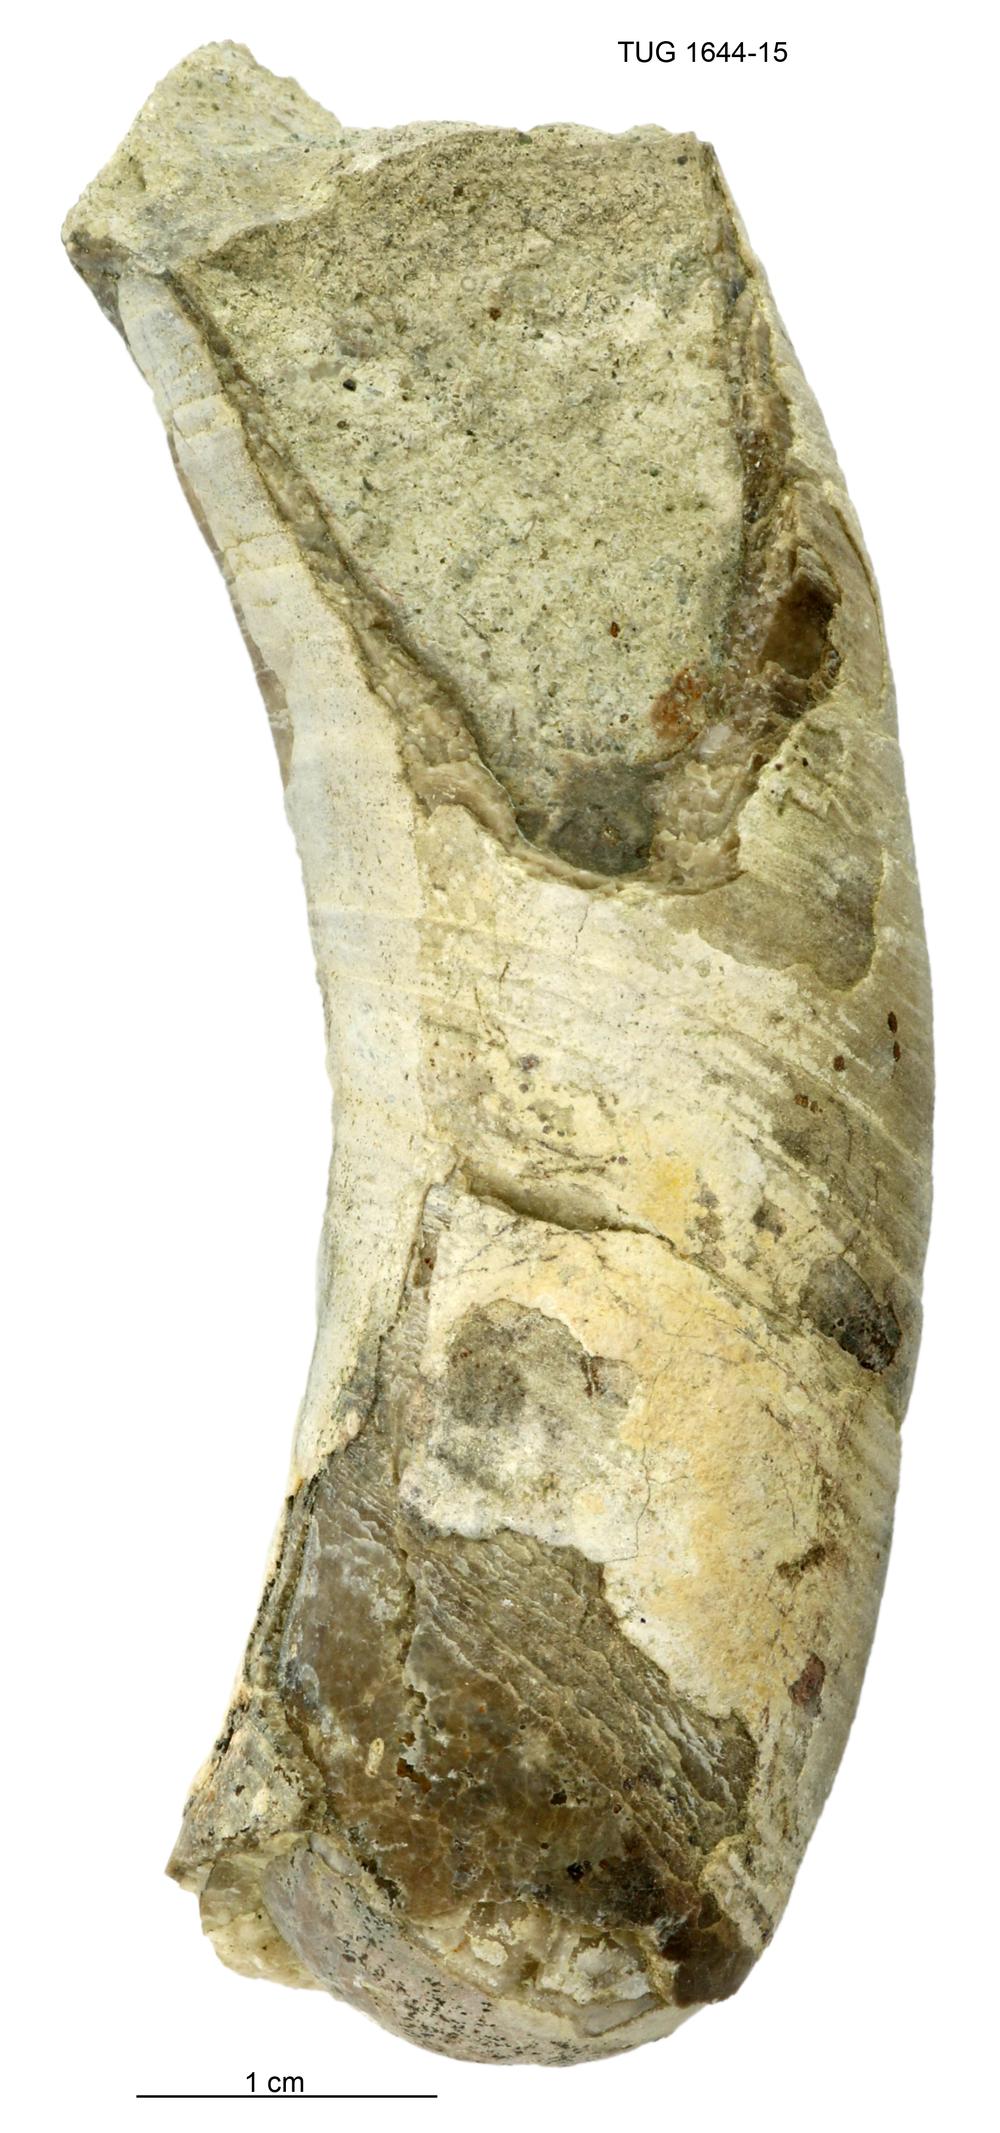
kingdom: Animalia
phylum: Mollusca
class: Cephalopoda
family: Tarphyceratidae
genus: Planctoceras
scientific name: Planctoceras
